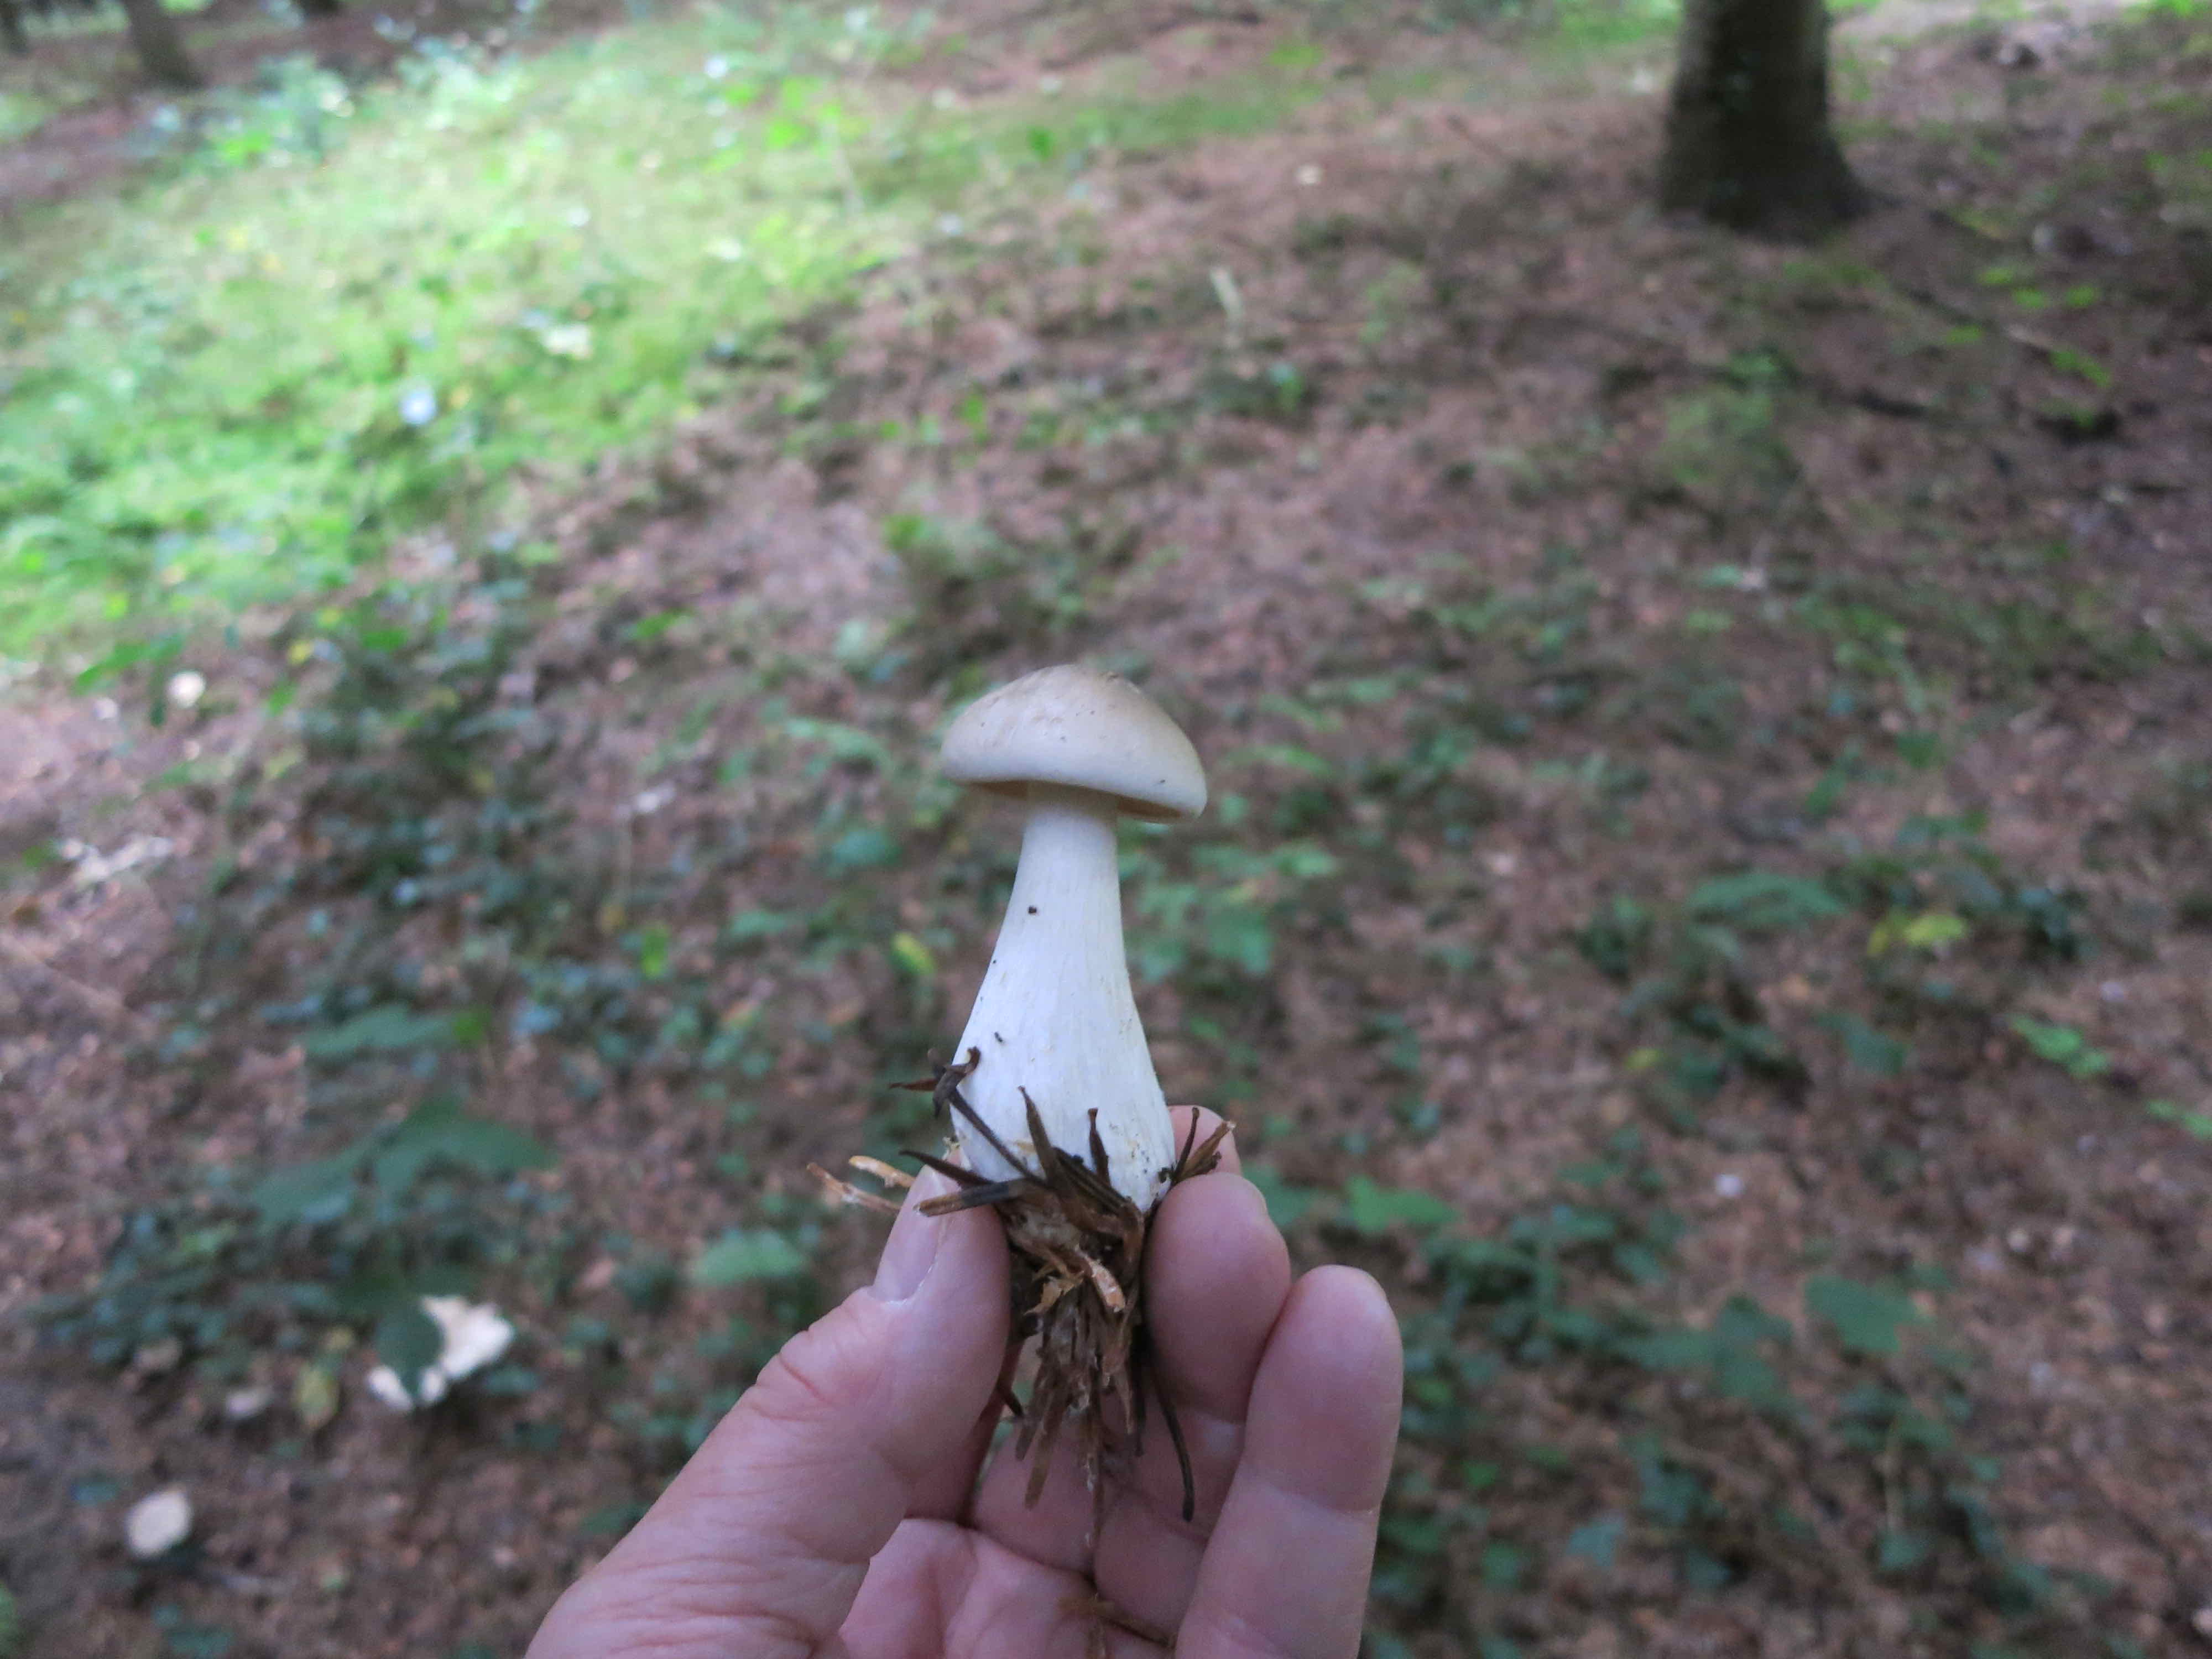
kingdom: Fungi
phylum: Basidiomycota
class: Agaricomycetes
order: Agaricales
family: Tricholomataceae
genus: Clitocybe
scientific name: Clitocybe nebularis
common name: tåge-tragthat
